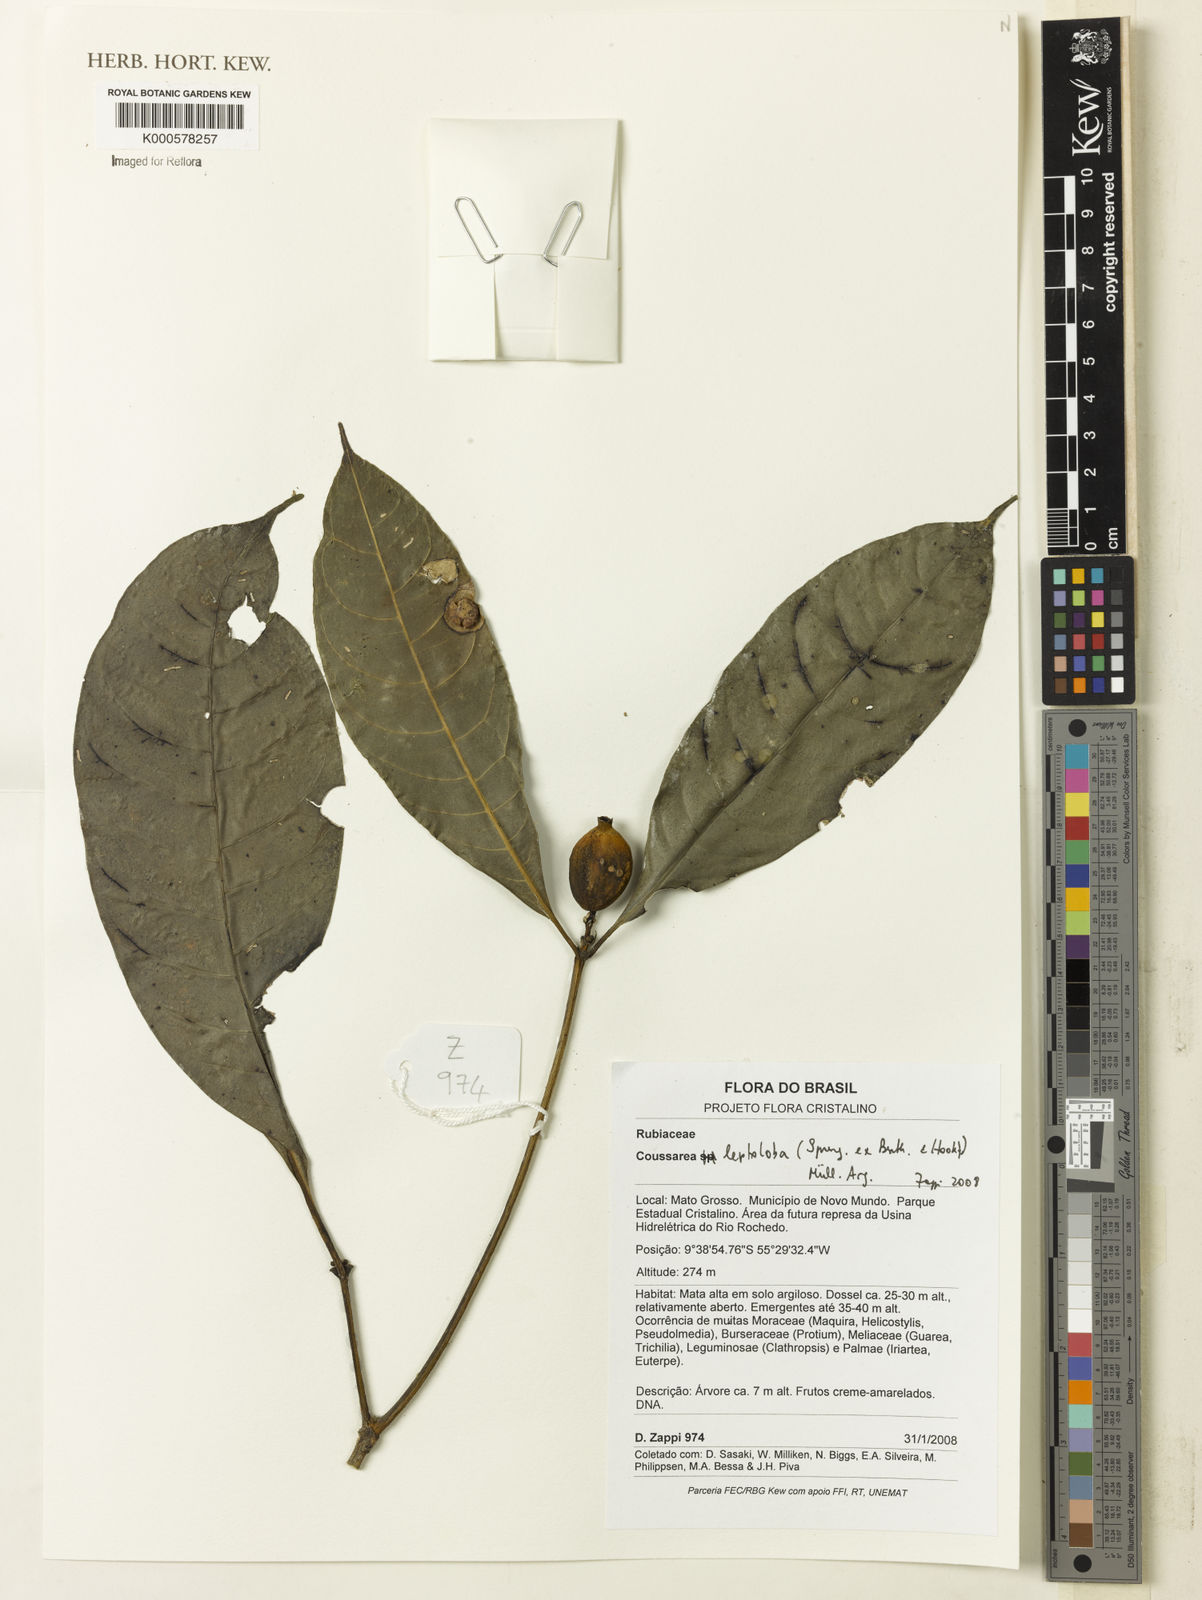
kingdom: Plantae
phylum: Tracheophyta
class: Magnoliopsida
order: Gentianales
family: Rubiaceae
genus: Coussarea
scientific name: Coussarea
